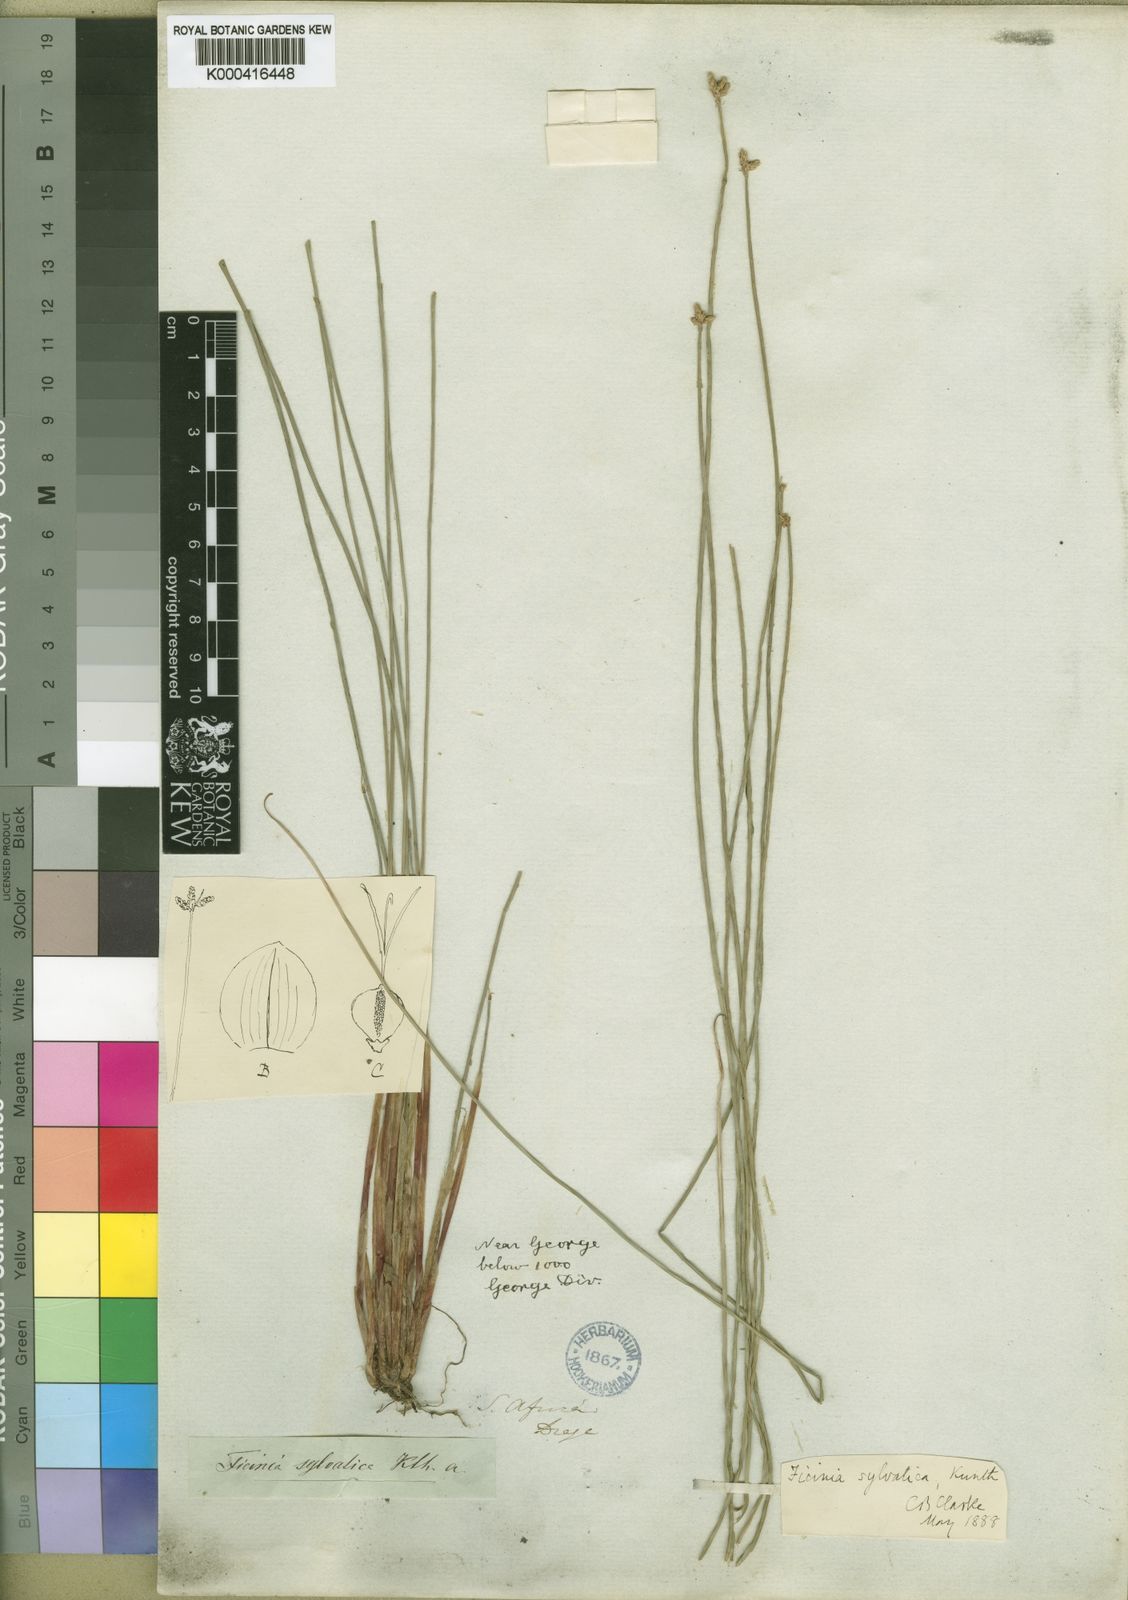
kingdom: Plantae
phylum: Tracheophyta
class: Liliopsida
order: Poales
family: Cyperaceae
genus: Ficinia
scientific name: Ficinia sylvatica
